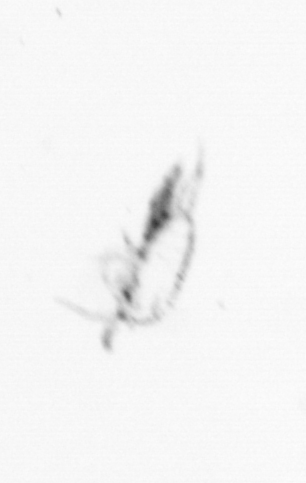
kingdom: Animalia
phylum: Arthropoda
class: Maxillopoda
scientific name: Maxillopoda
